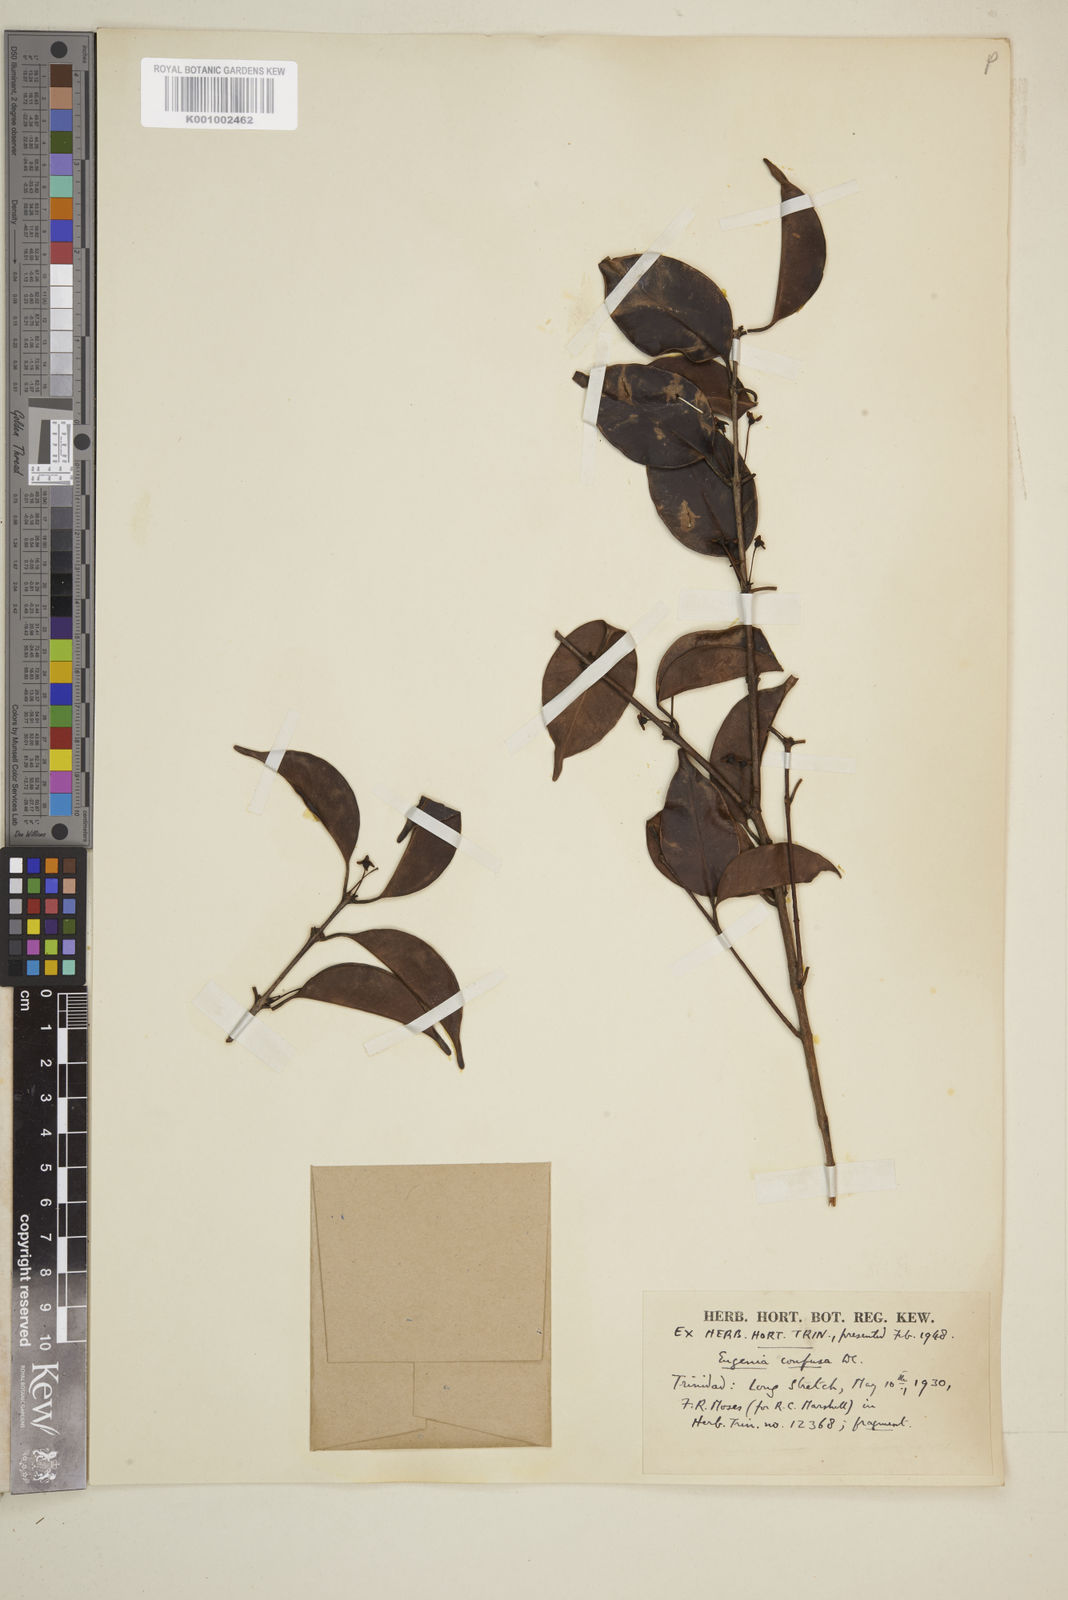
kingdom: Plantae
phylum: Tracheophyta
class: Magnoliopsida
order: Myrtales
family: Myrtaceae
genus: Eugenia
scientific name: Eugenia confusa
